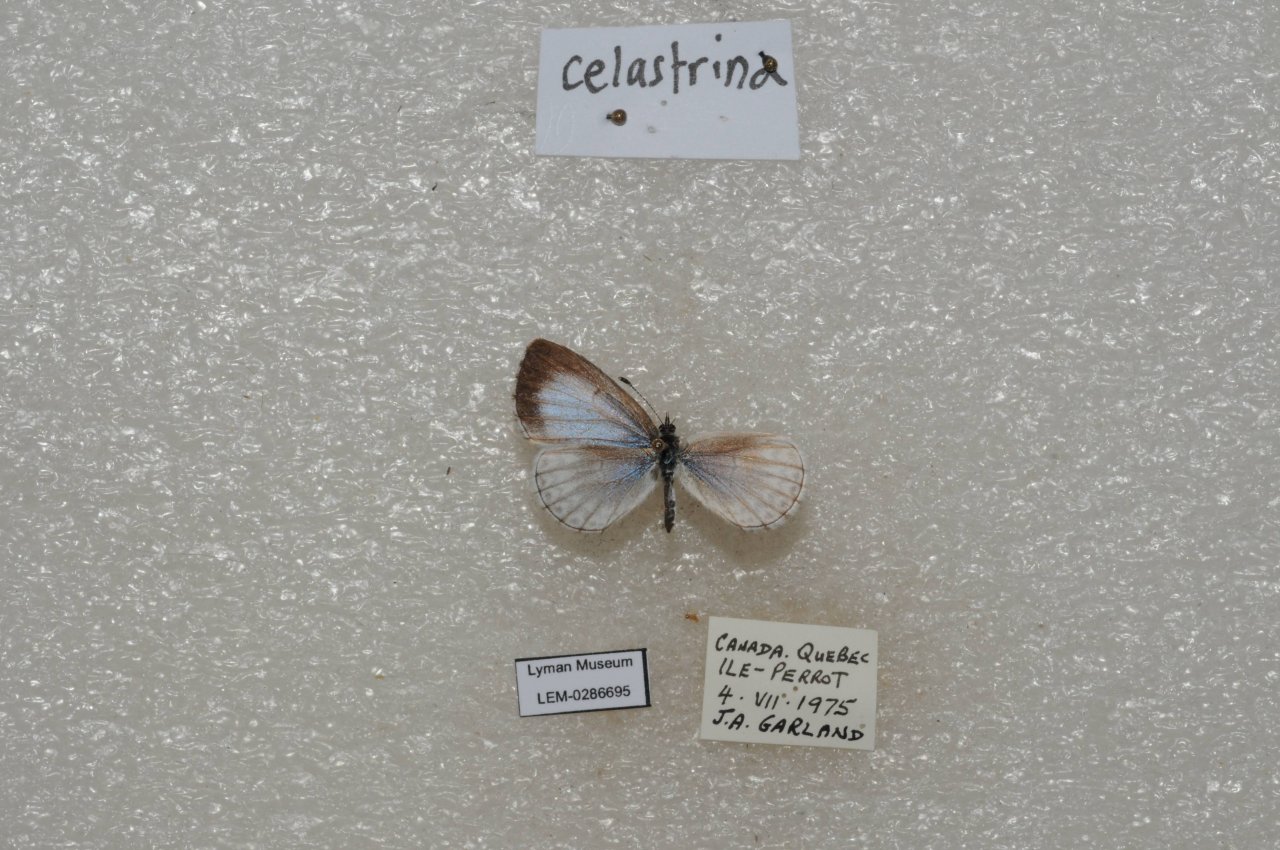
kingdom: Animalia
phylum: Arthropoda
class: Insecta
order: Lepidoptera
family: Lycaenidae
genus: Celastrina
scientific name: Celastrina lucia
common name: Northern Spring Azure
